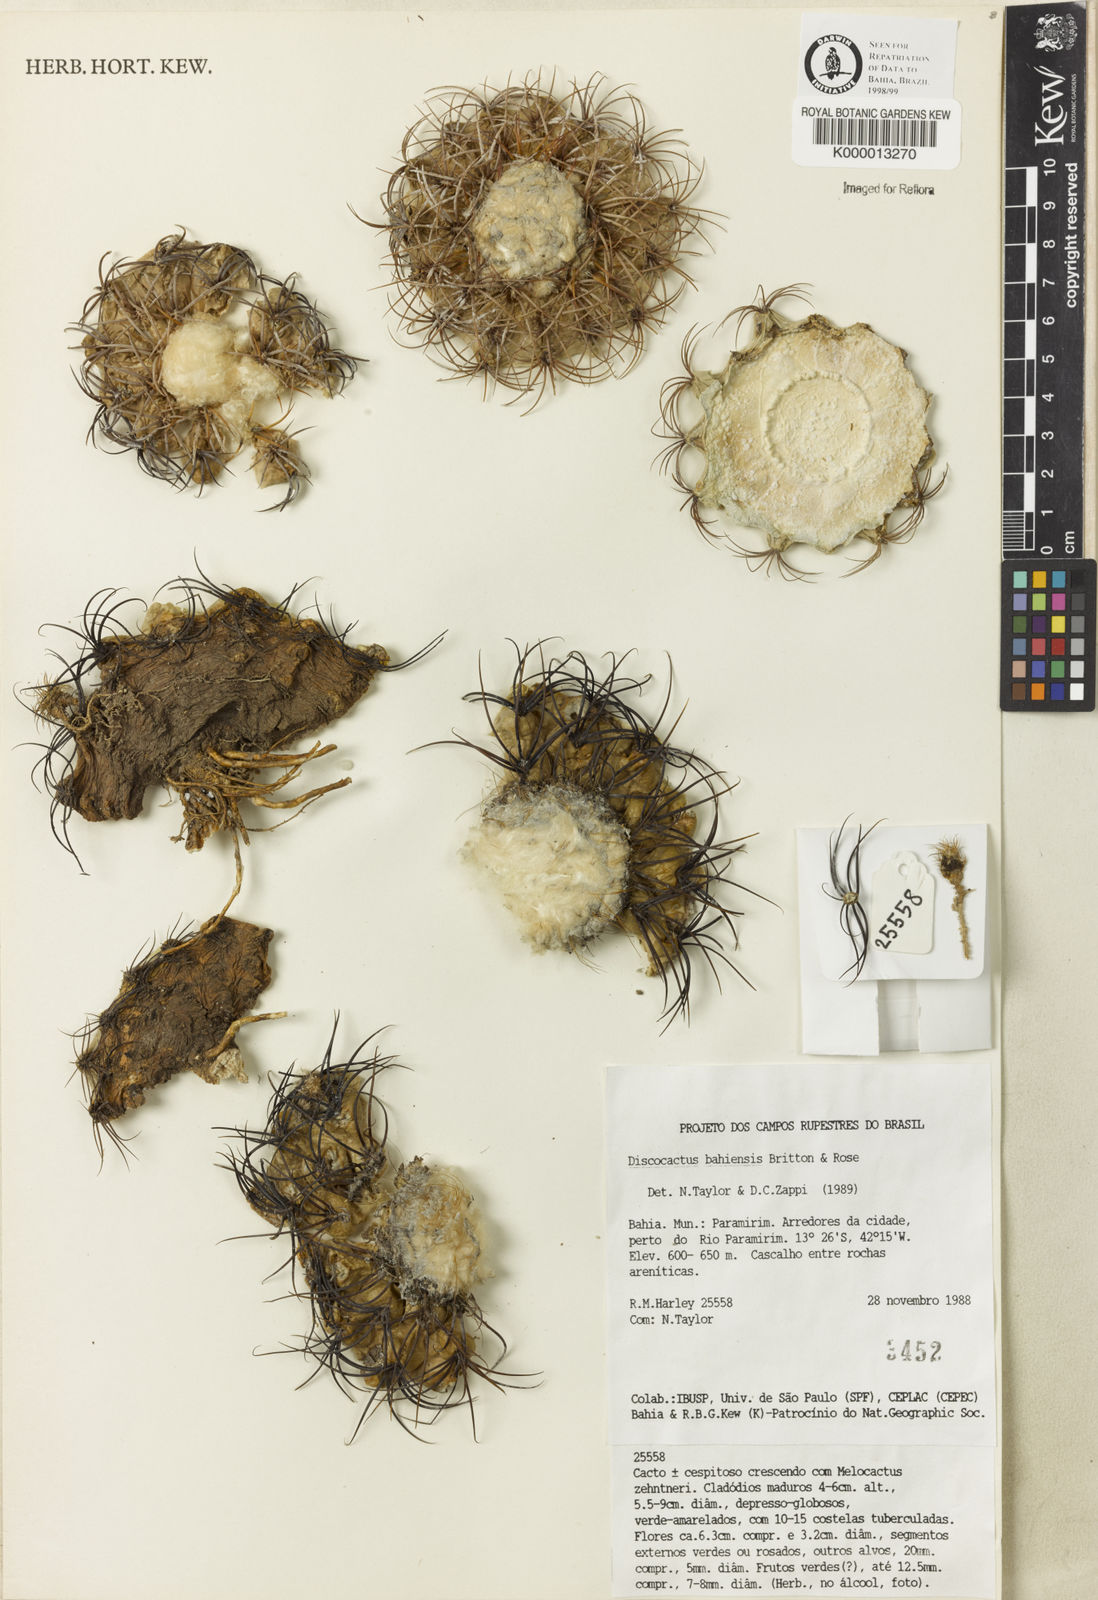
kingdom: Plantae
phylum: Tracheophyta
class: Magnoliopsida
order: Caryophyllales
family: Cactaceae
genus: Discocactus
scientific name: Discocactus bahiensis
